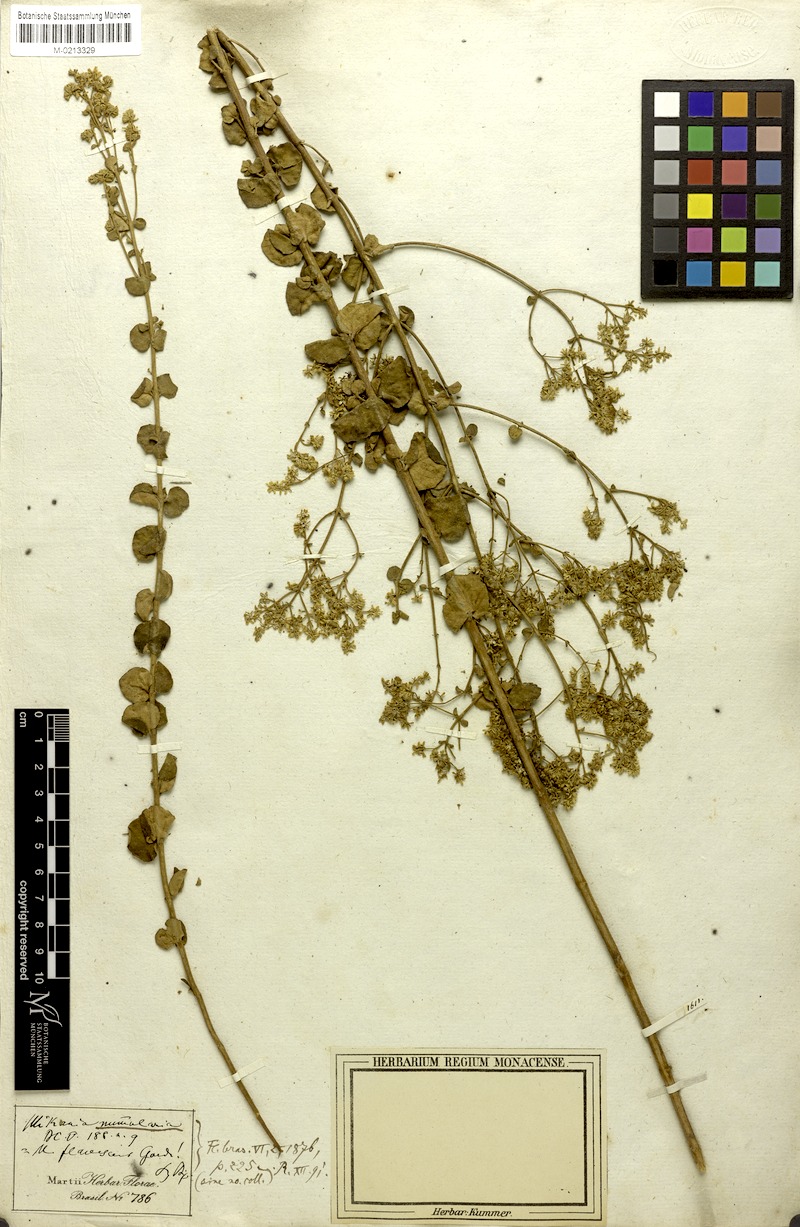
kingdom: Plantae
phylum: Tracheophyta
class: Magnoliopsida
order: Asterales
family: Asteraceae
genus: Mikania
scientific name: Mikania nummularia
